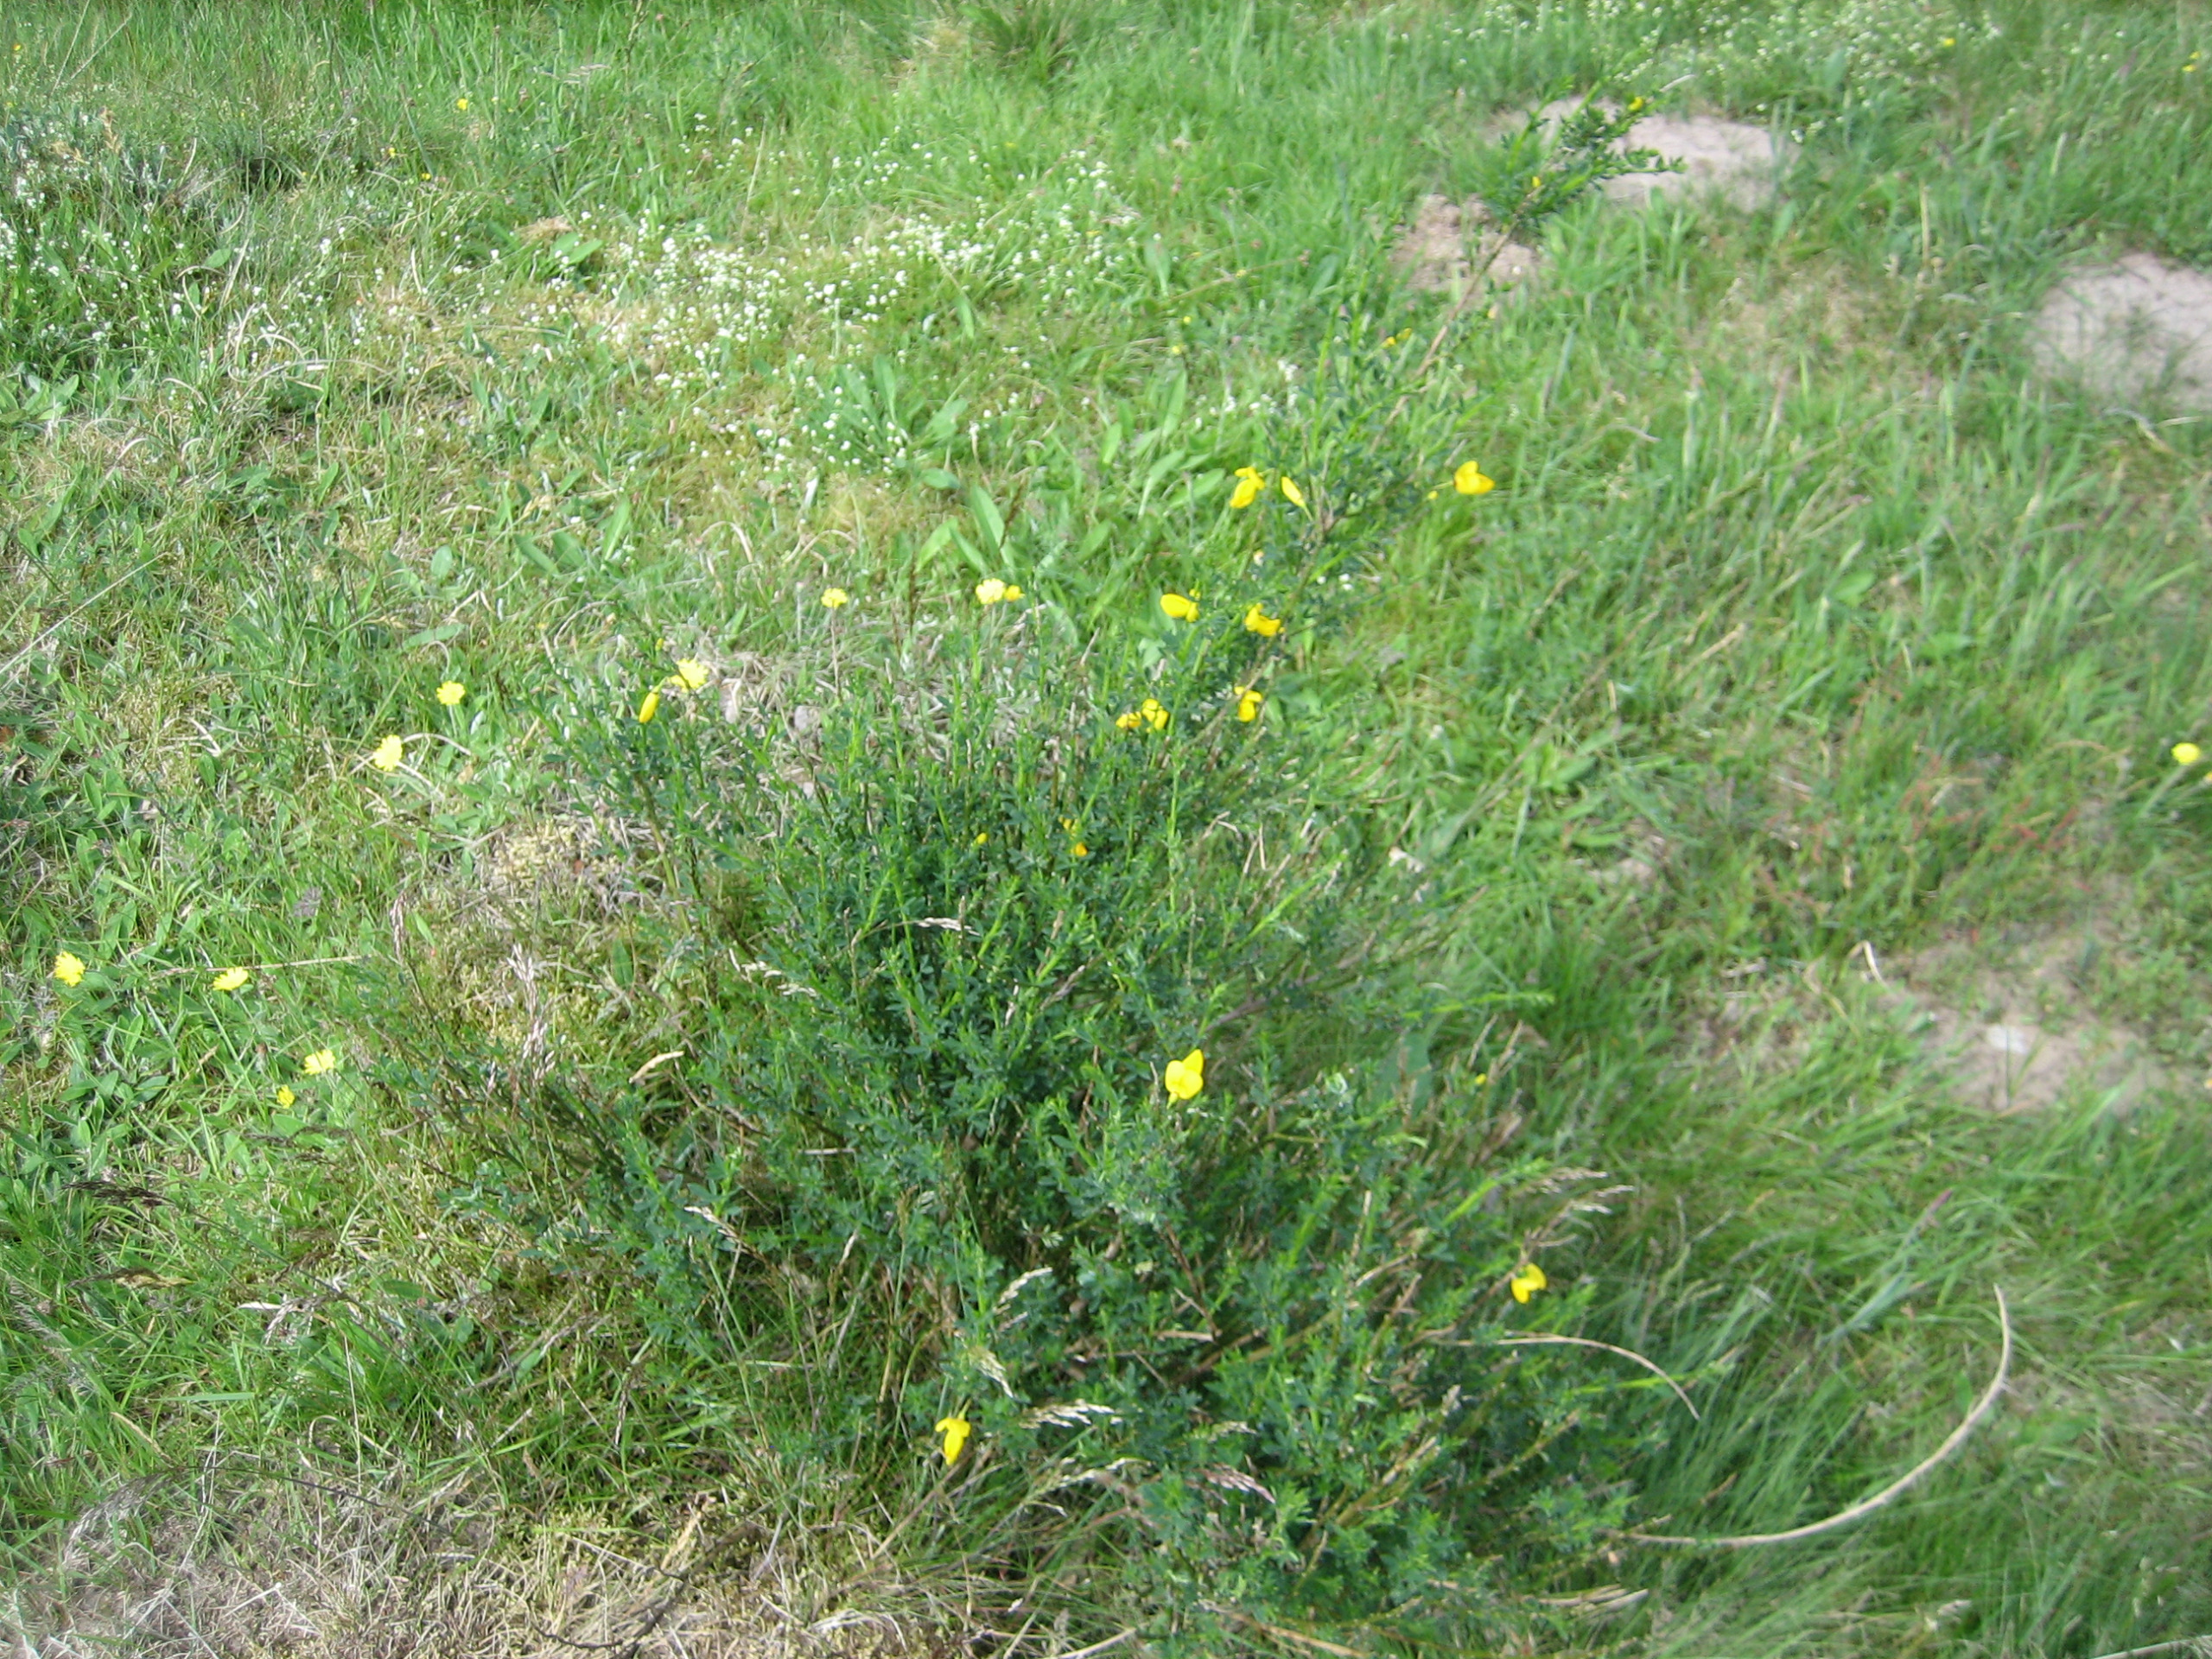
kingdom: Plantae
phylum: Tracheophyta
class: Magnoliopsida
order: Fabales
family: Fabaceae
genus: Cytisus
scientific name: Cytisus scoparius
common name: Almindelig gyvel
